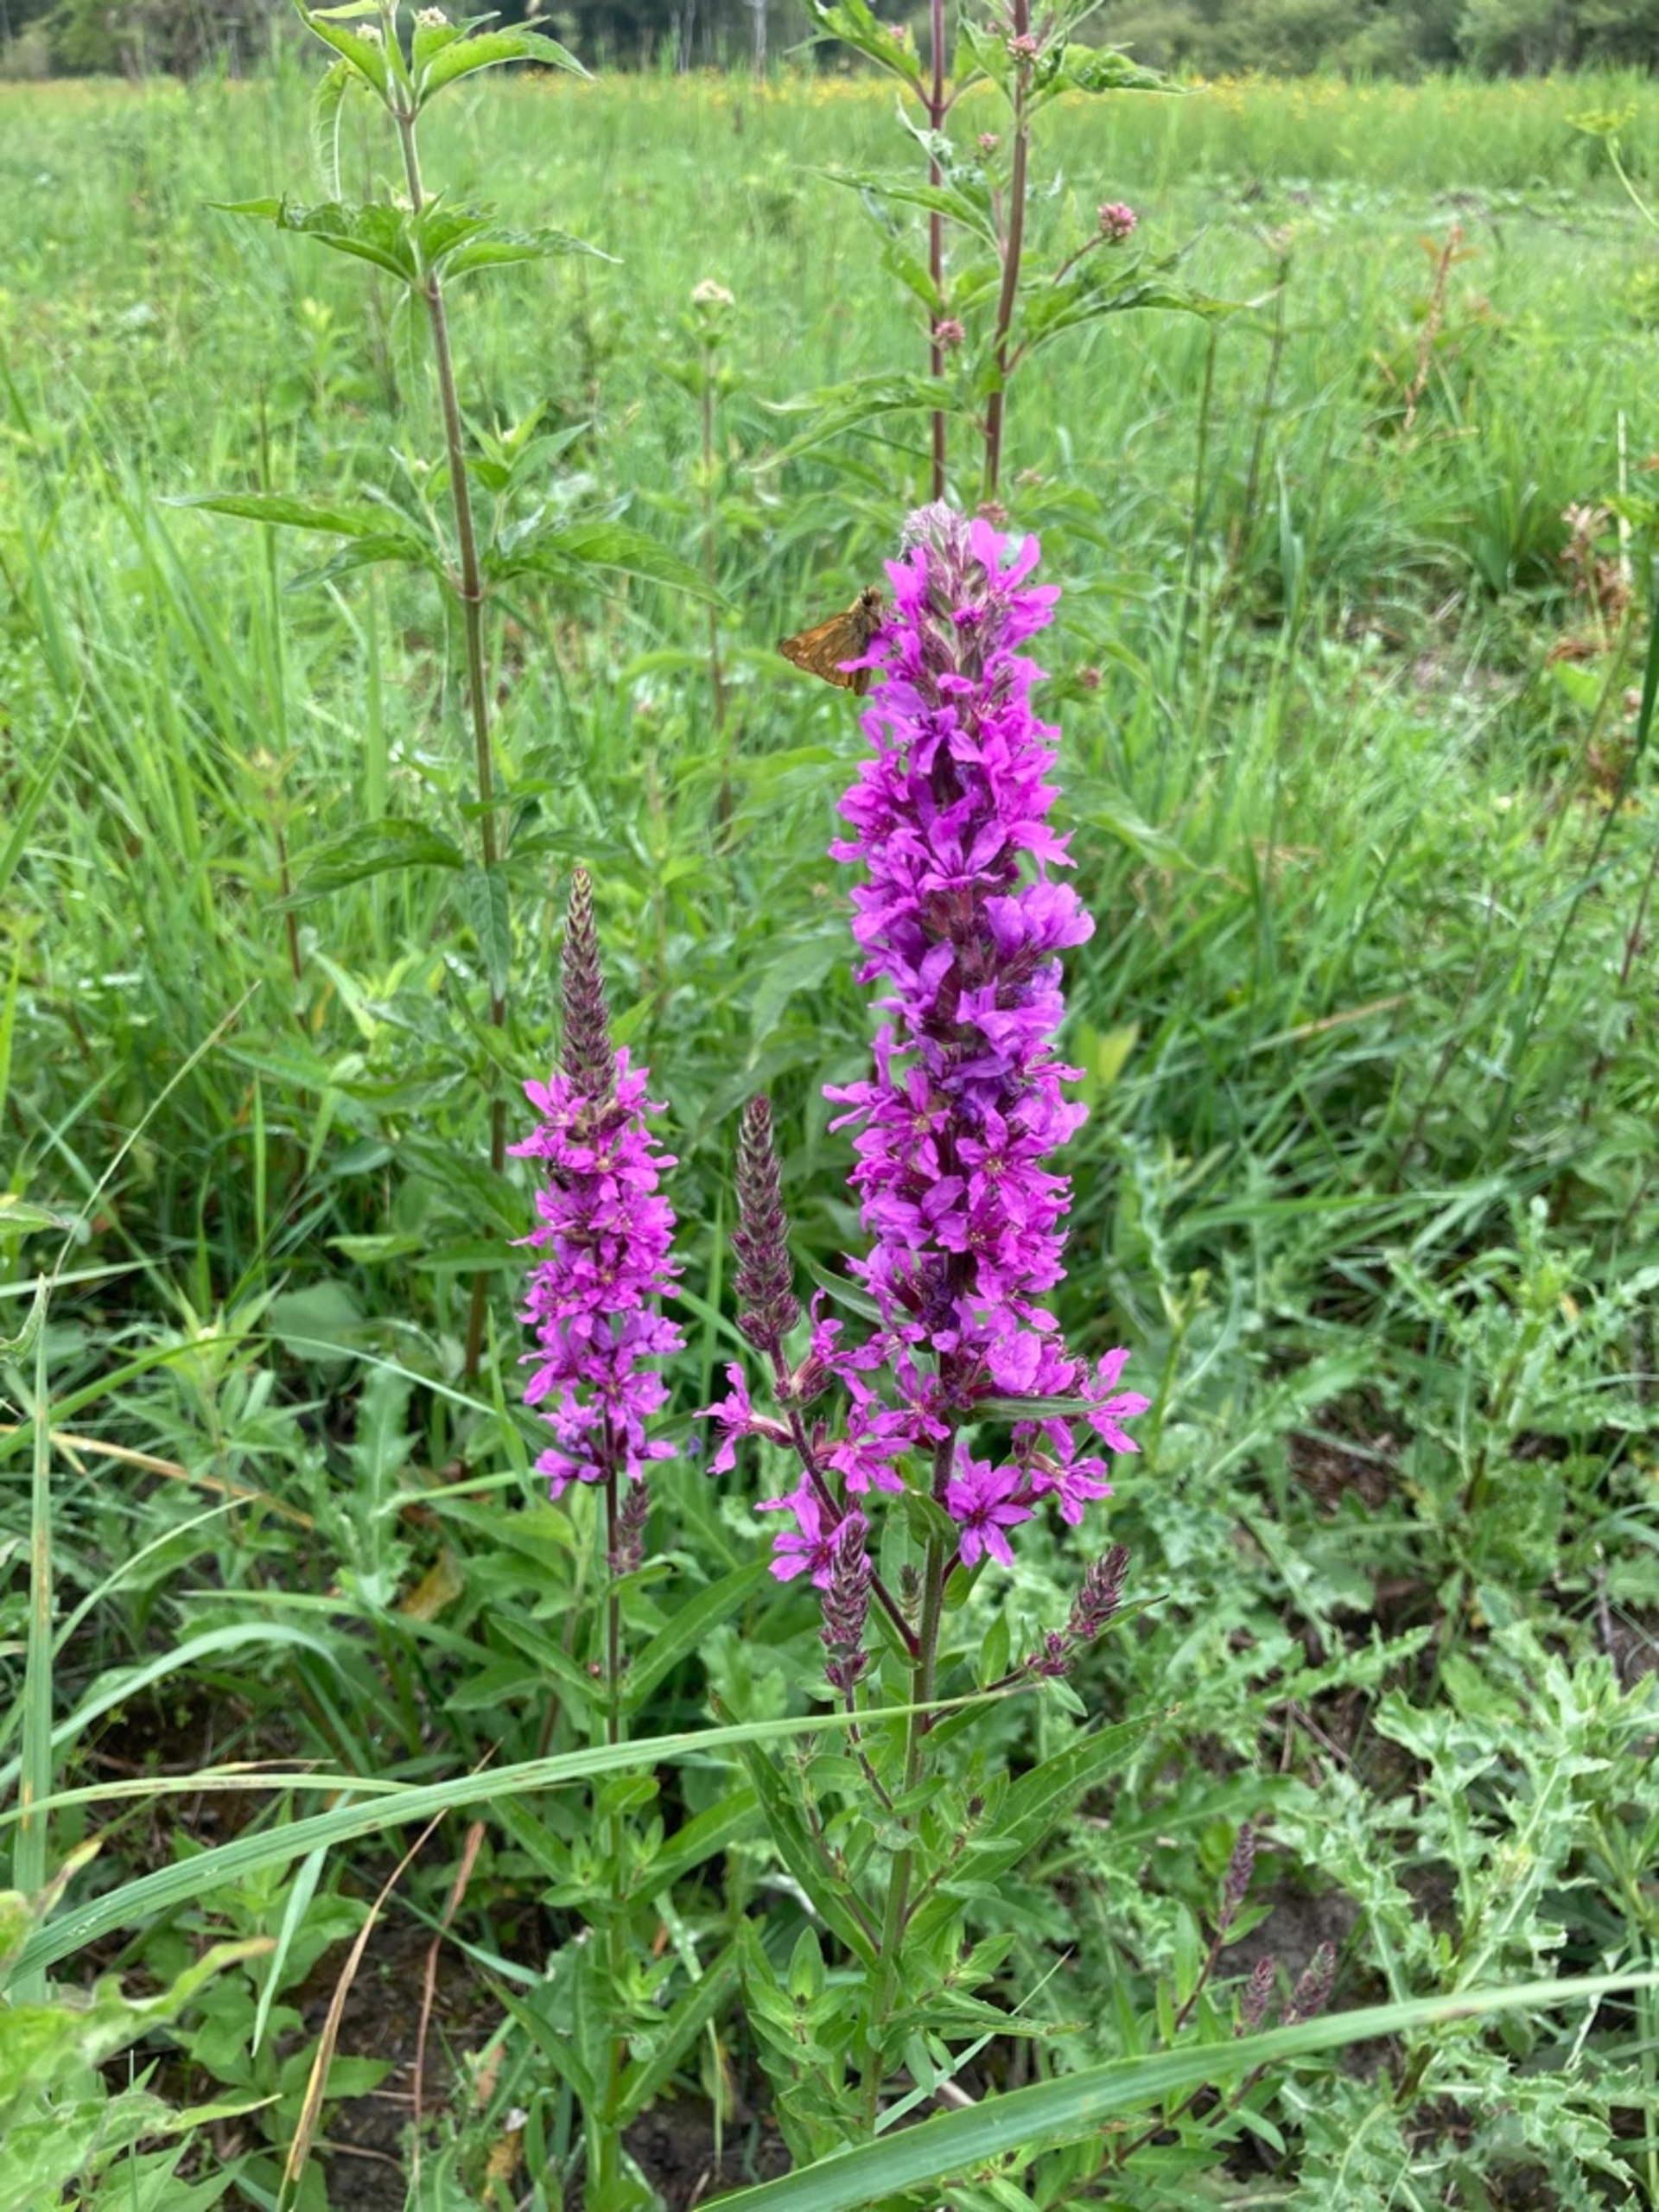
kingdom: Plantae
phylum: Tracheophyta
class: Magnoliopsida
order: Myrtales
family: Lythraceae
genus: Lythrum
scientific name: Lythrum salicaria
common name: Kattehale
